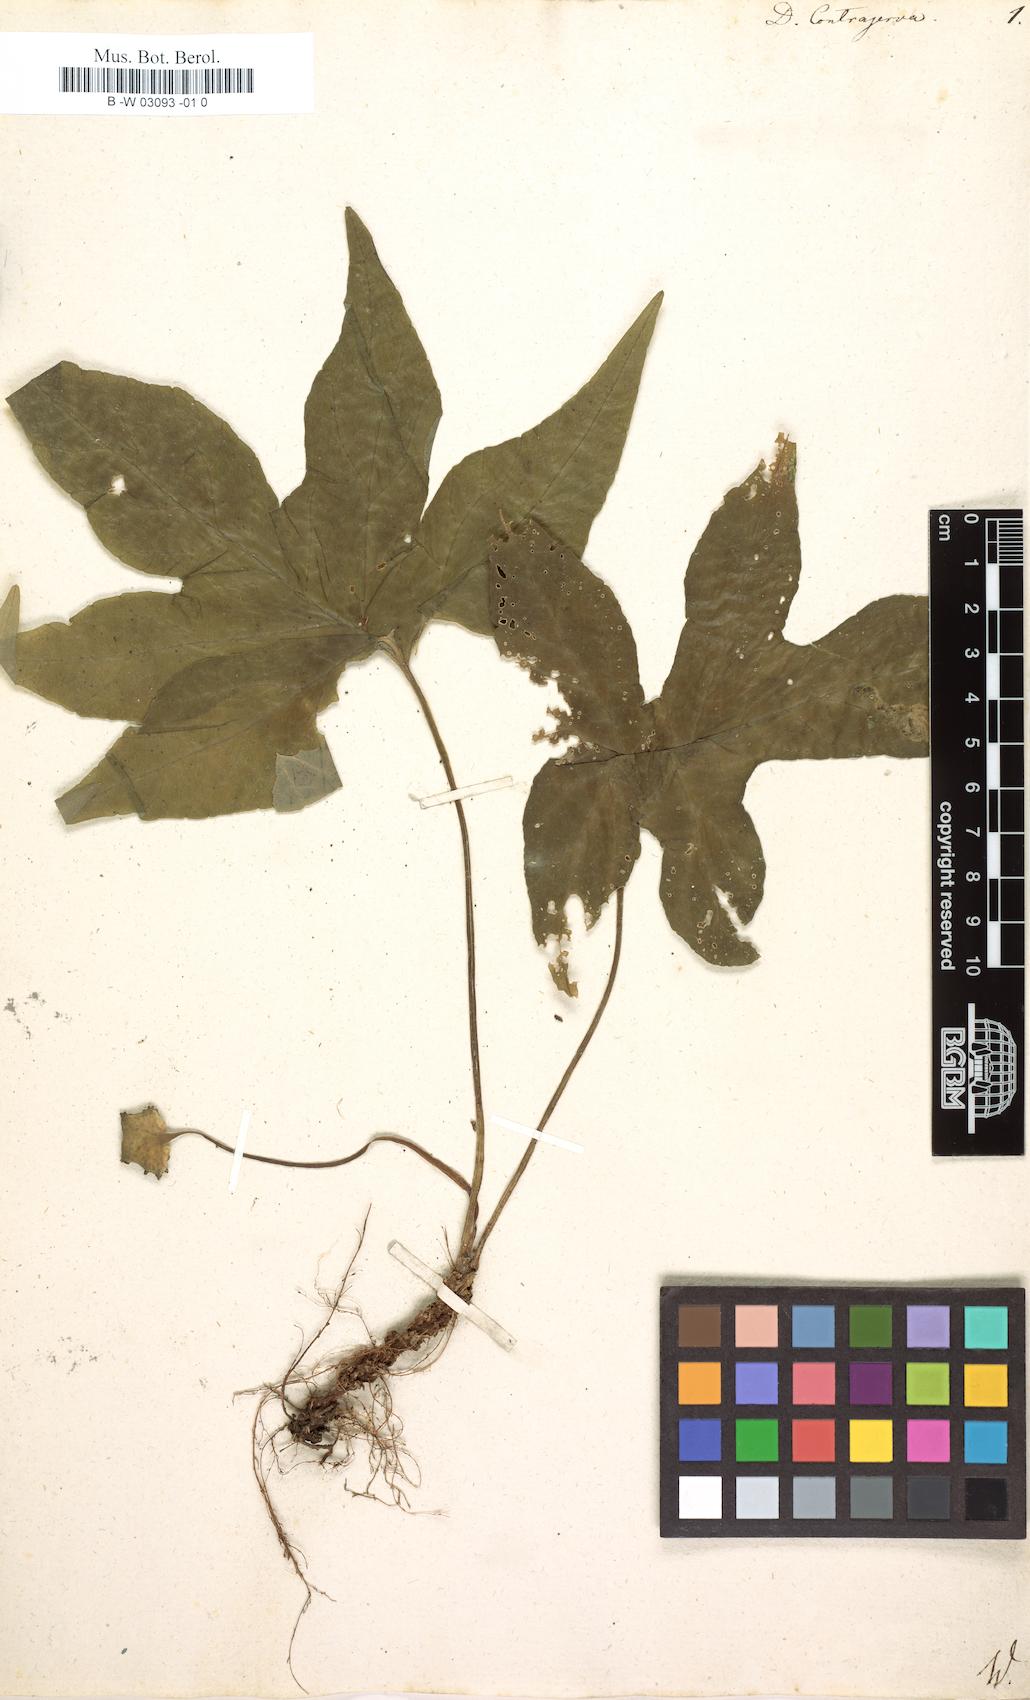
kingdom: Plantae
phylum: Tracheophyta
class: Magnoliopsida
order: Rosales
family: Moraceae
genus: Dorstenia
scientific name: Dorstenia contrajerva
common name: Tusilla
